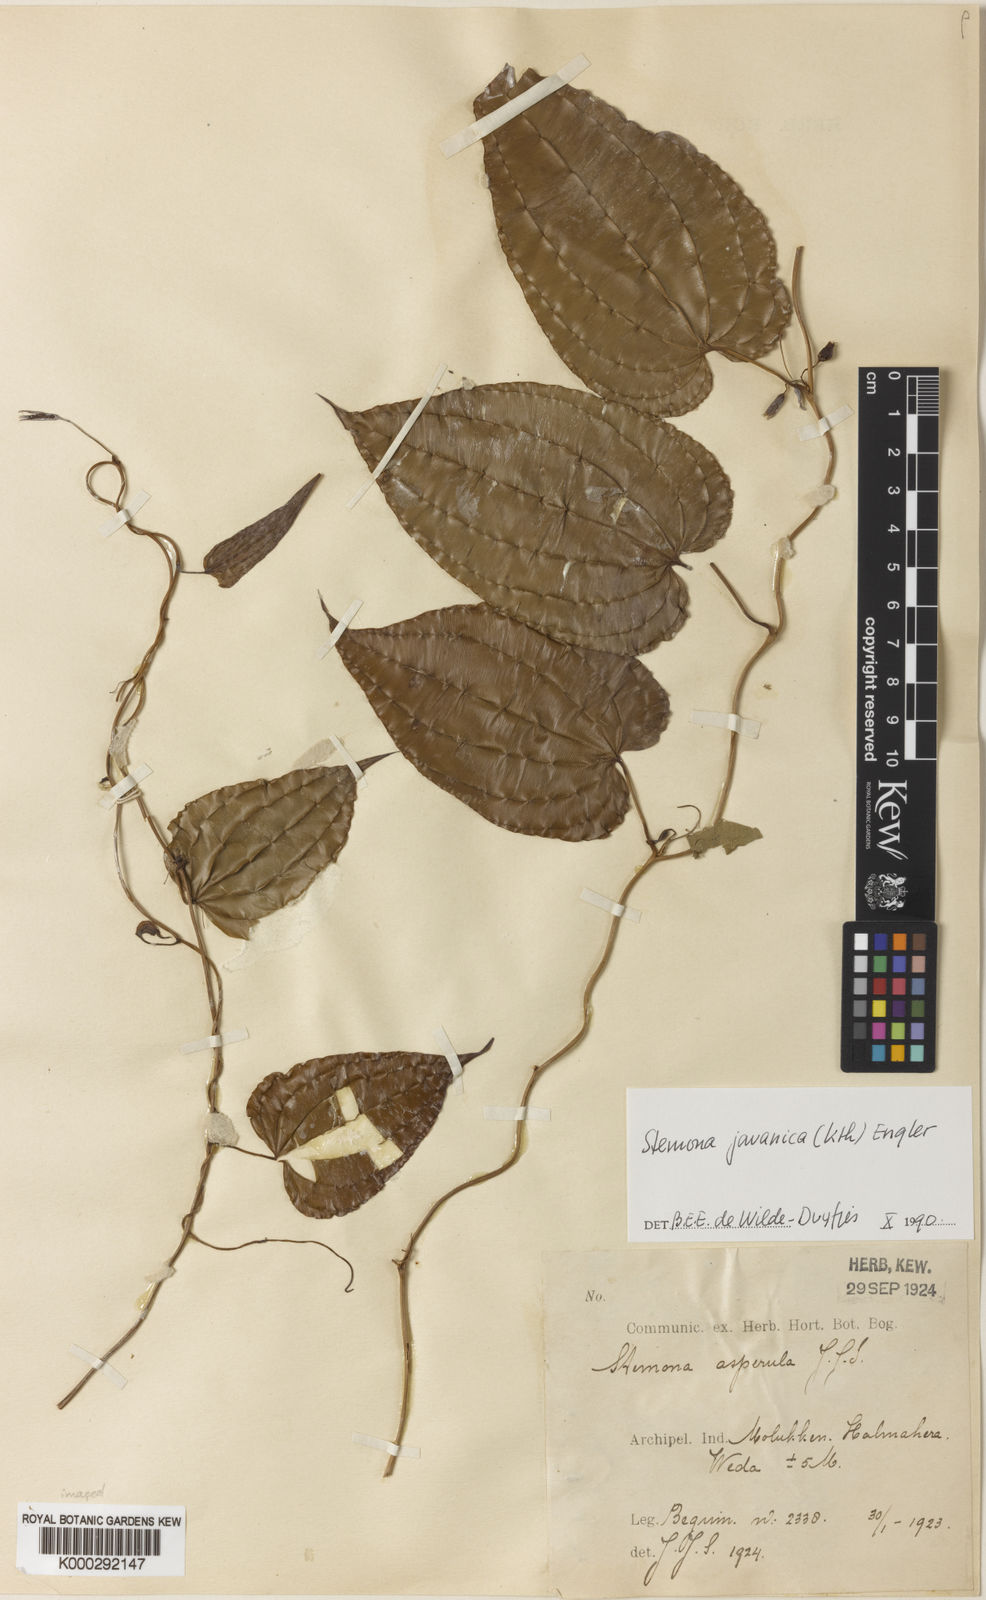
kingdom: Plantae
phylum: Tracheophyta
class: Liliopsida
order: Pandanales
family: Stemonaceae
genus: Stemona
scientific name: Stemona javanica
